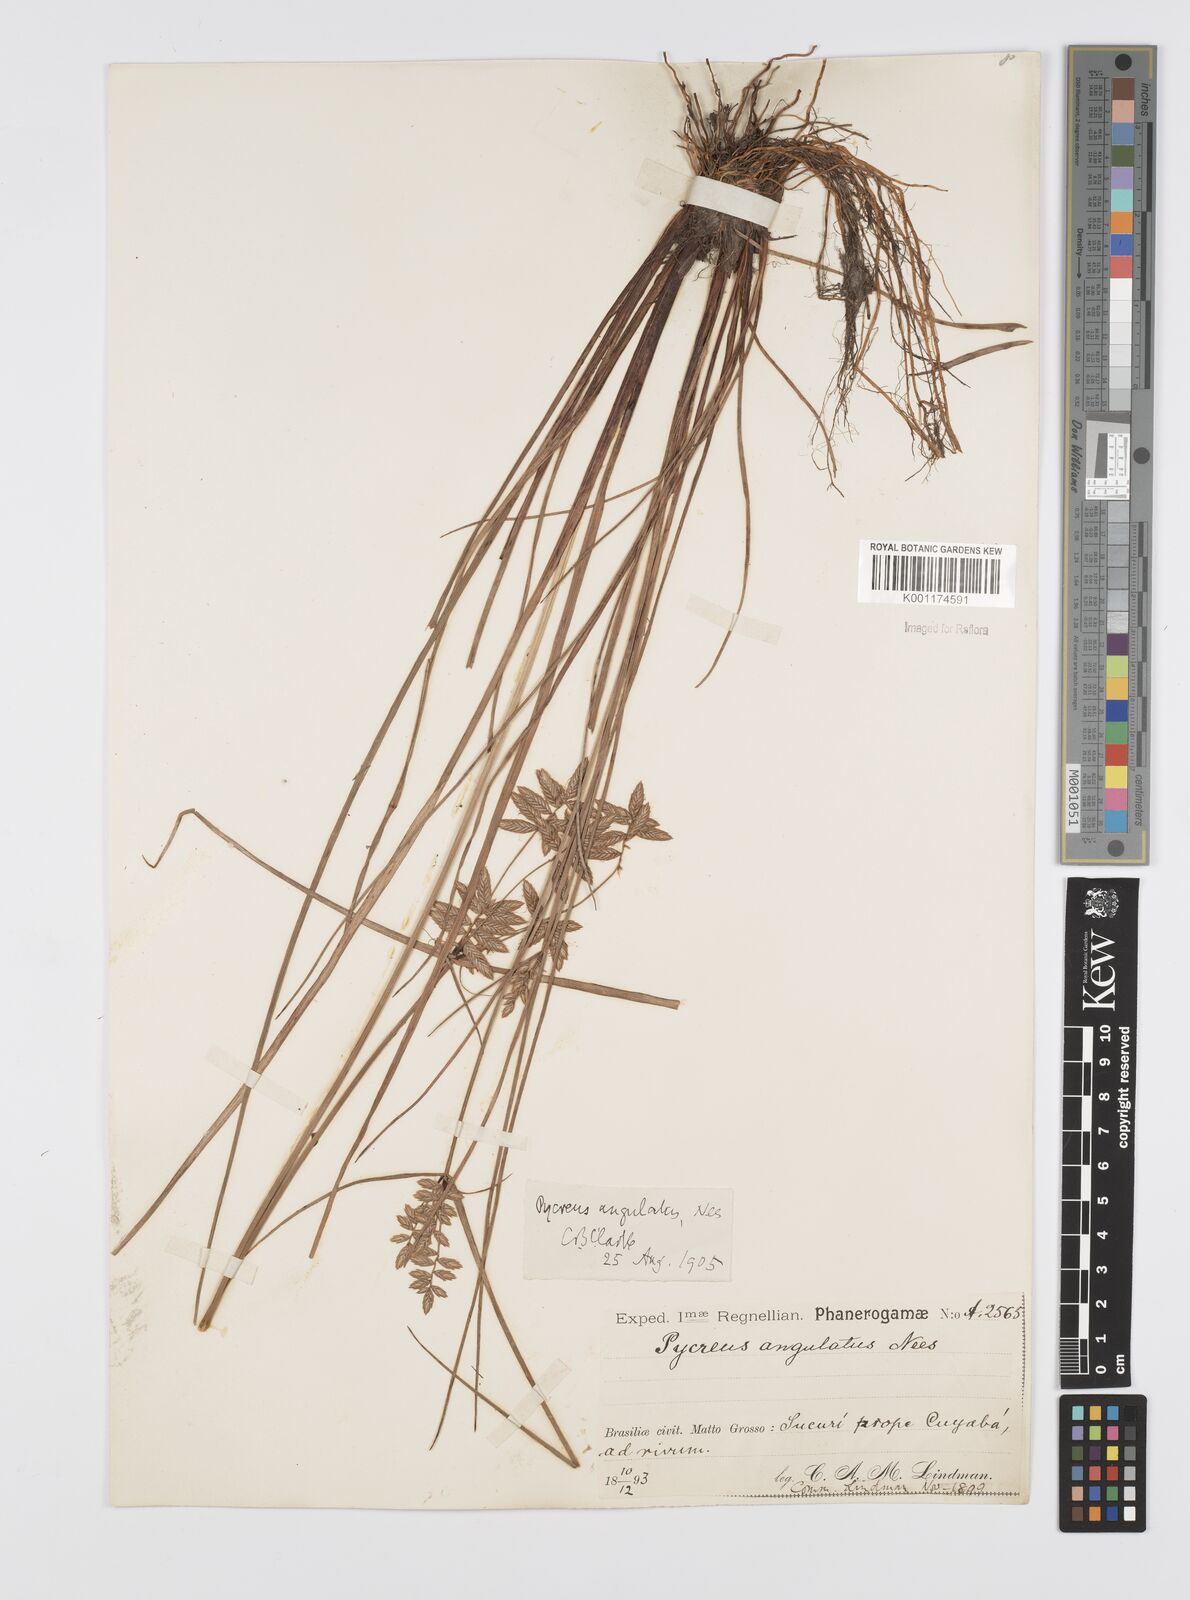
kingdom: Plantae
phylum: Tracheophyta
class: Liliopsida
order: Poales
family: Cyperaceae
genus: Cyperus
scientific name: Cyperus unioloides
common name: Uniola flatsedge
